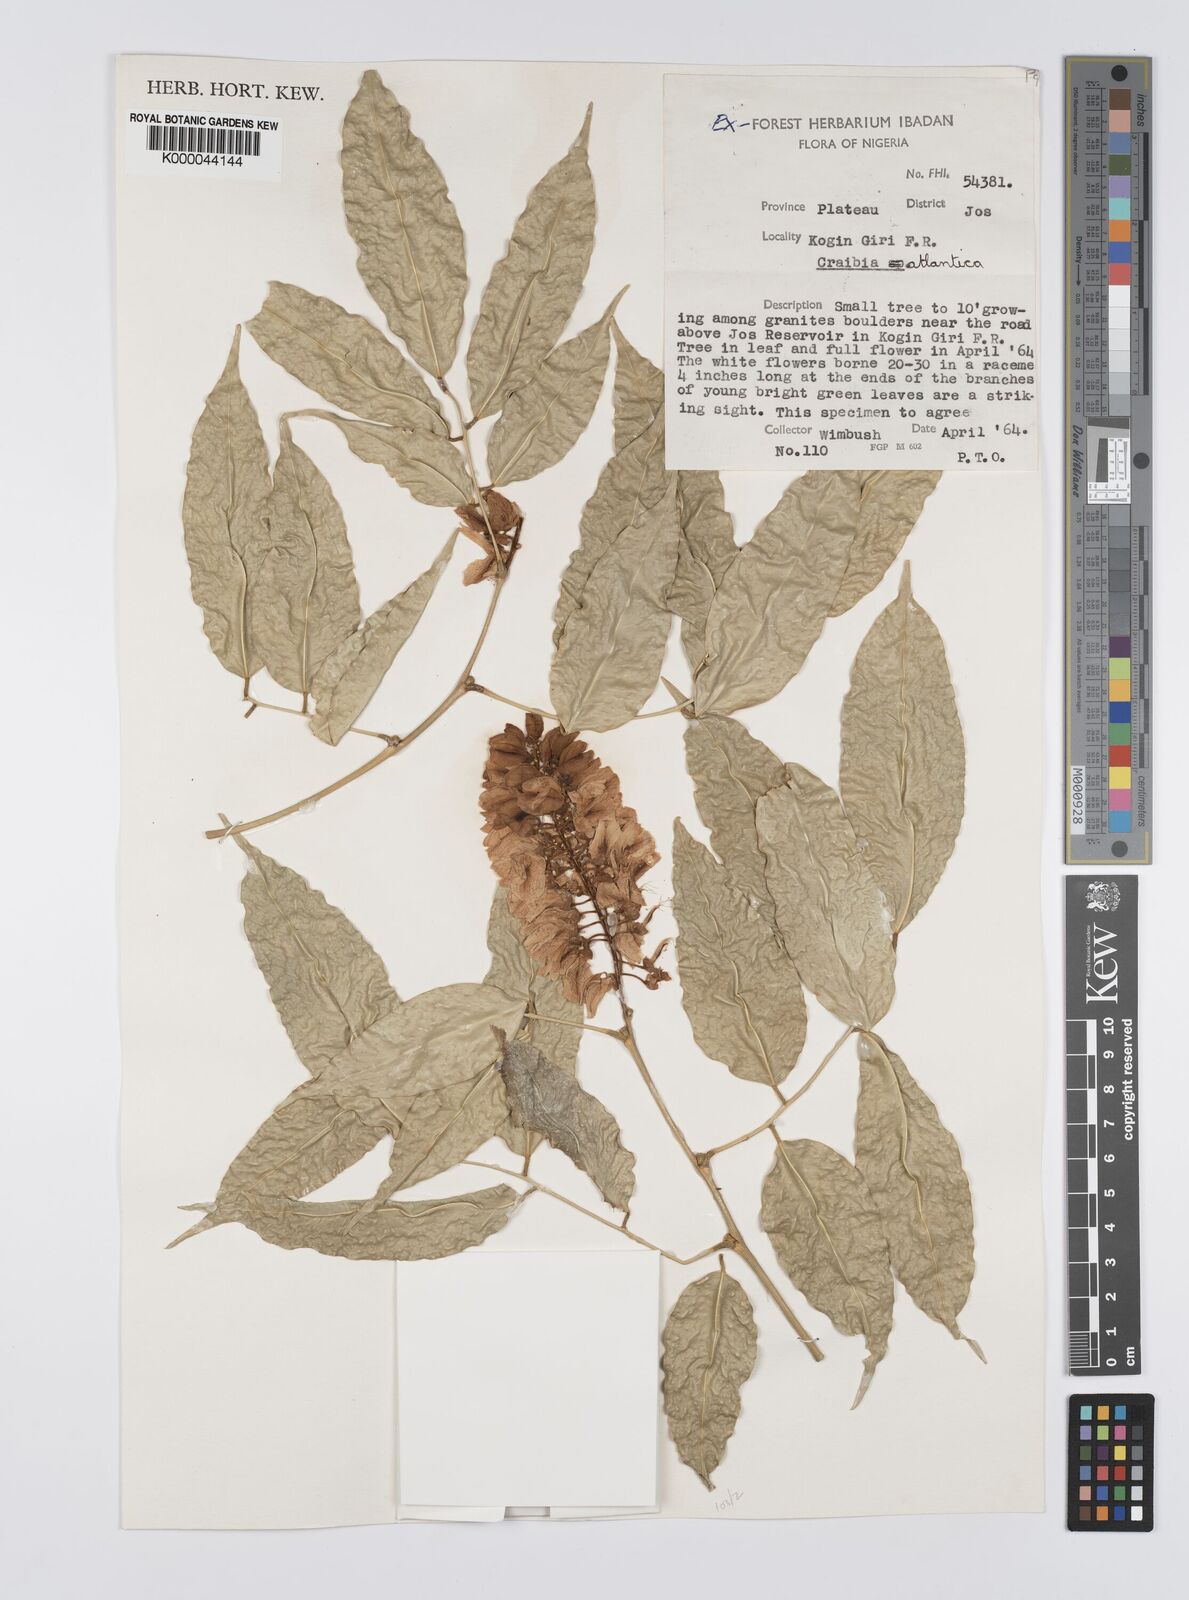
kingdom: Plantae
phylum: Tracheophyta
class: Magnoliopsida
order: Fabales
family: Fabaceae
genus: Craibia
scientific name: Craibia atlantica
